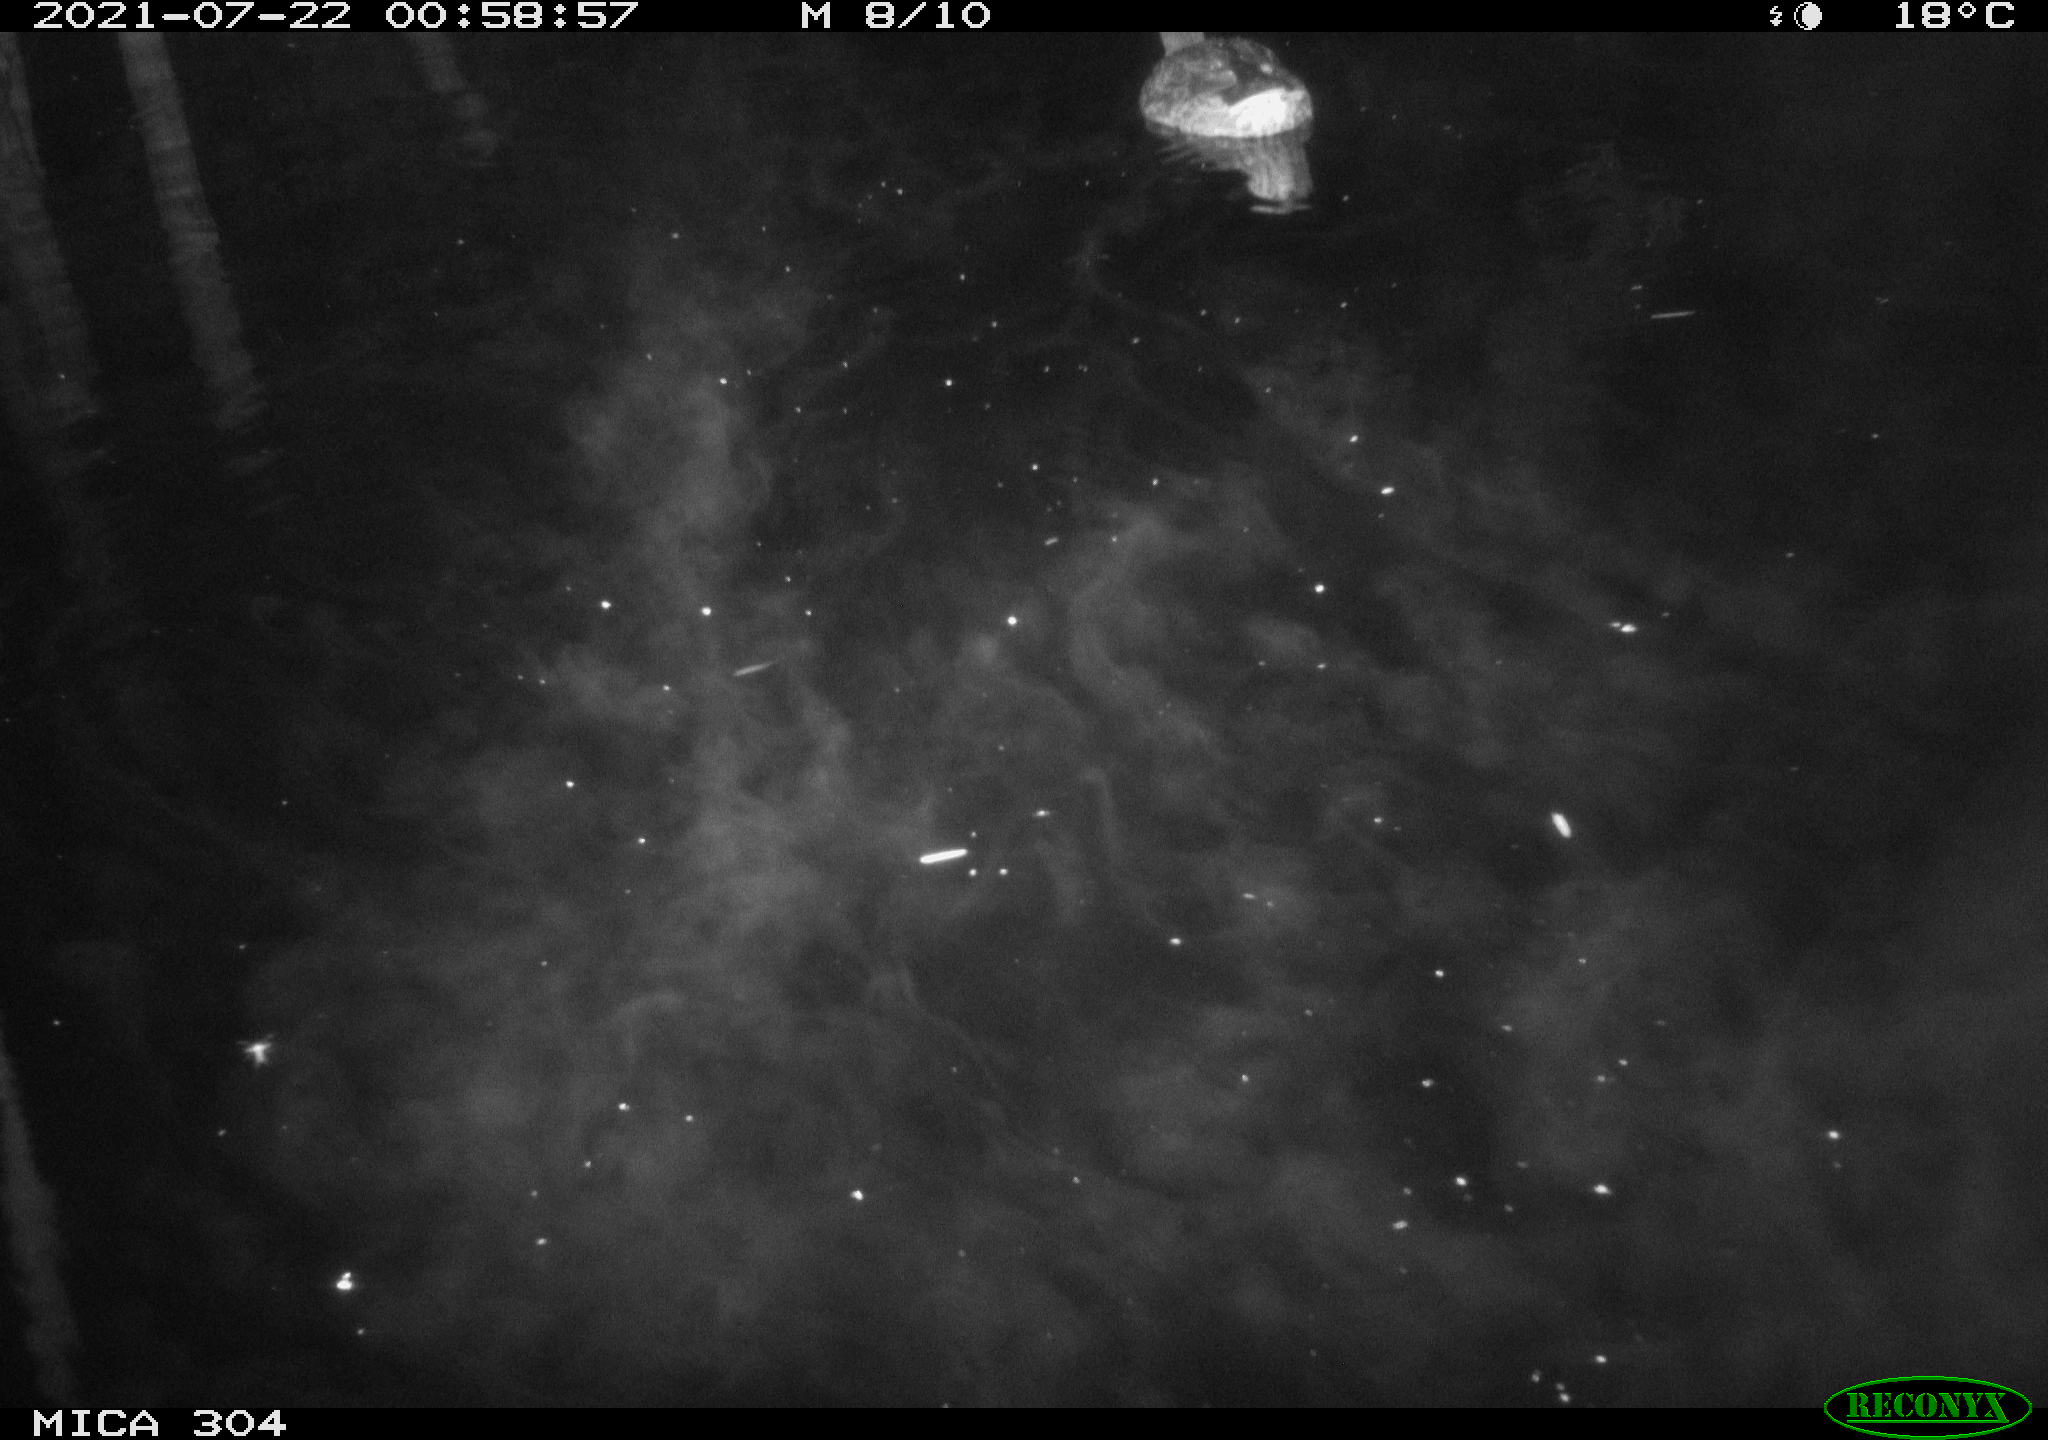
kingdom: Animalia
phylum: Chordata
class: Aves
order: Anseriformes
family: Anatidae
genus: Anas
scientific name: Anas platyrhynchos
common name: Mallard
